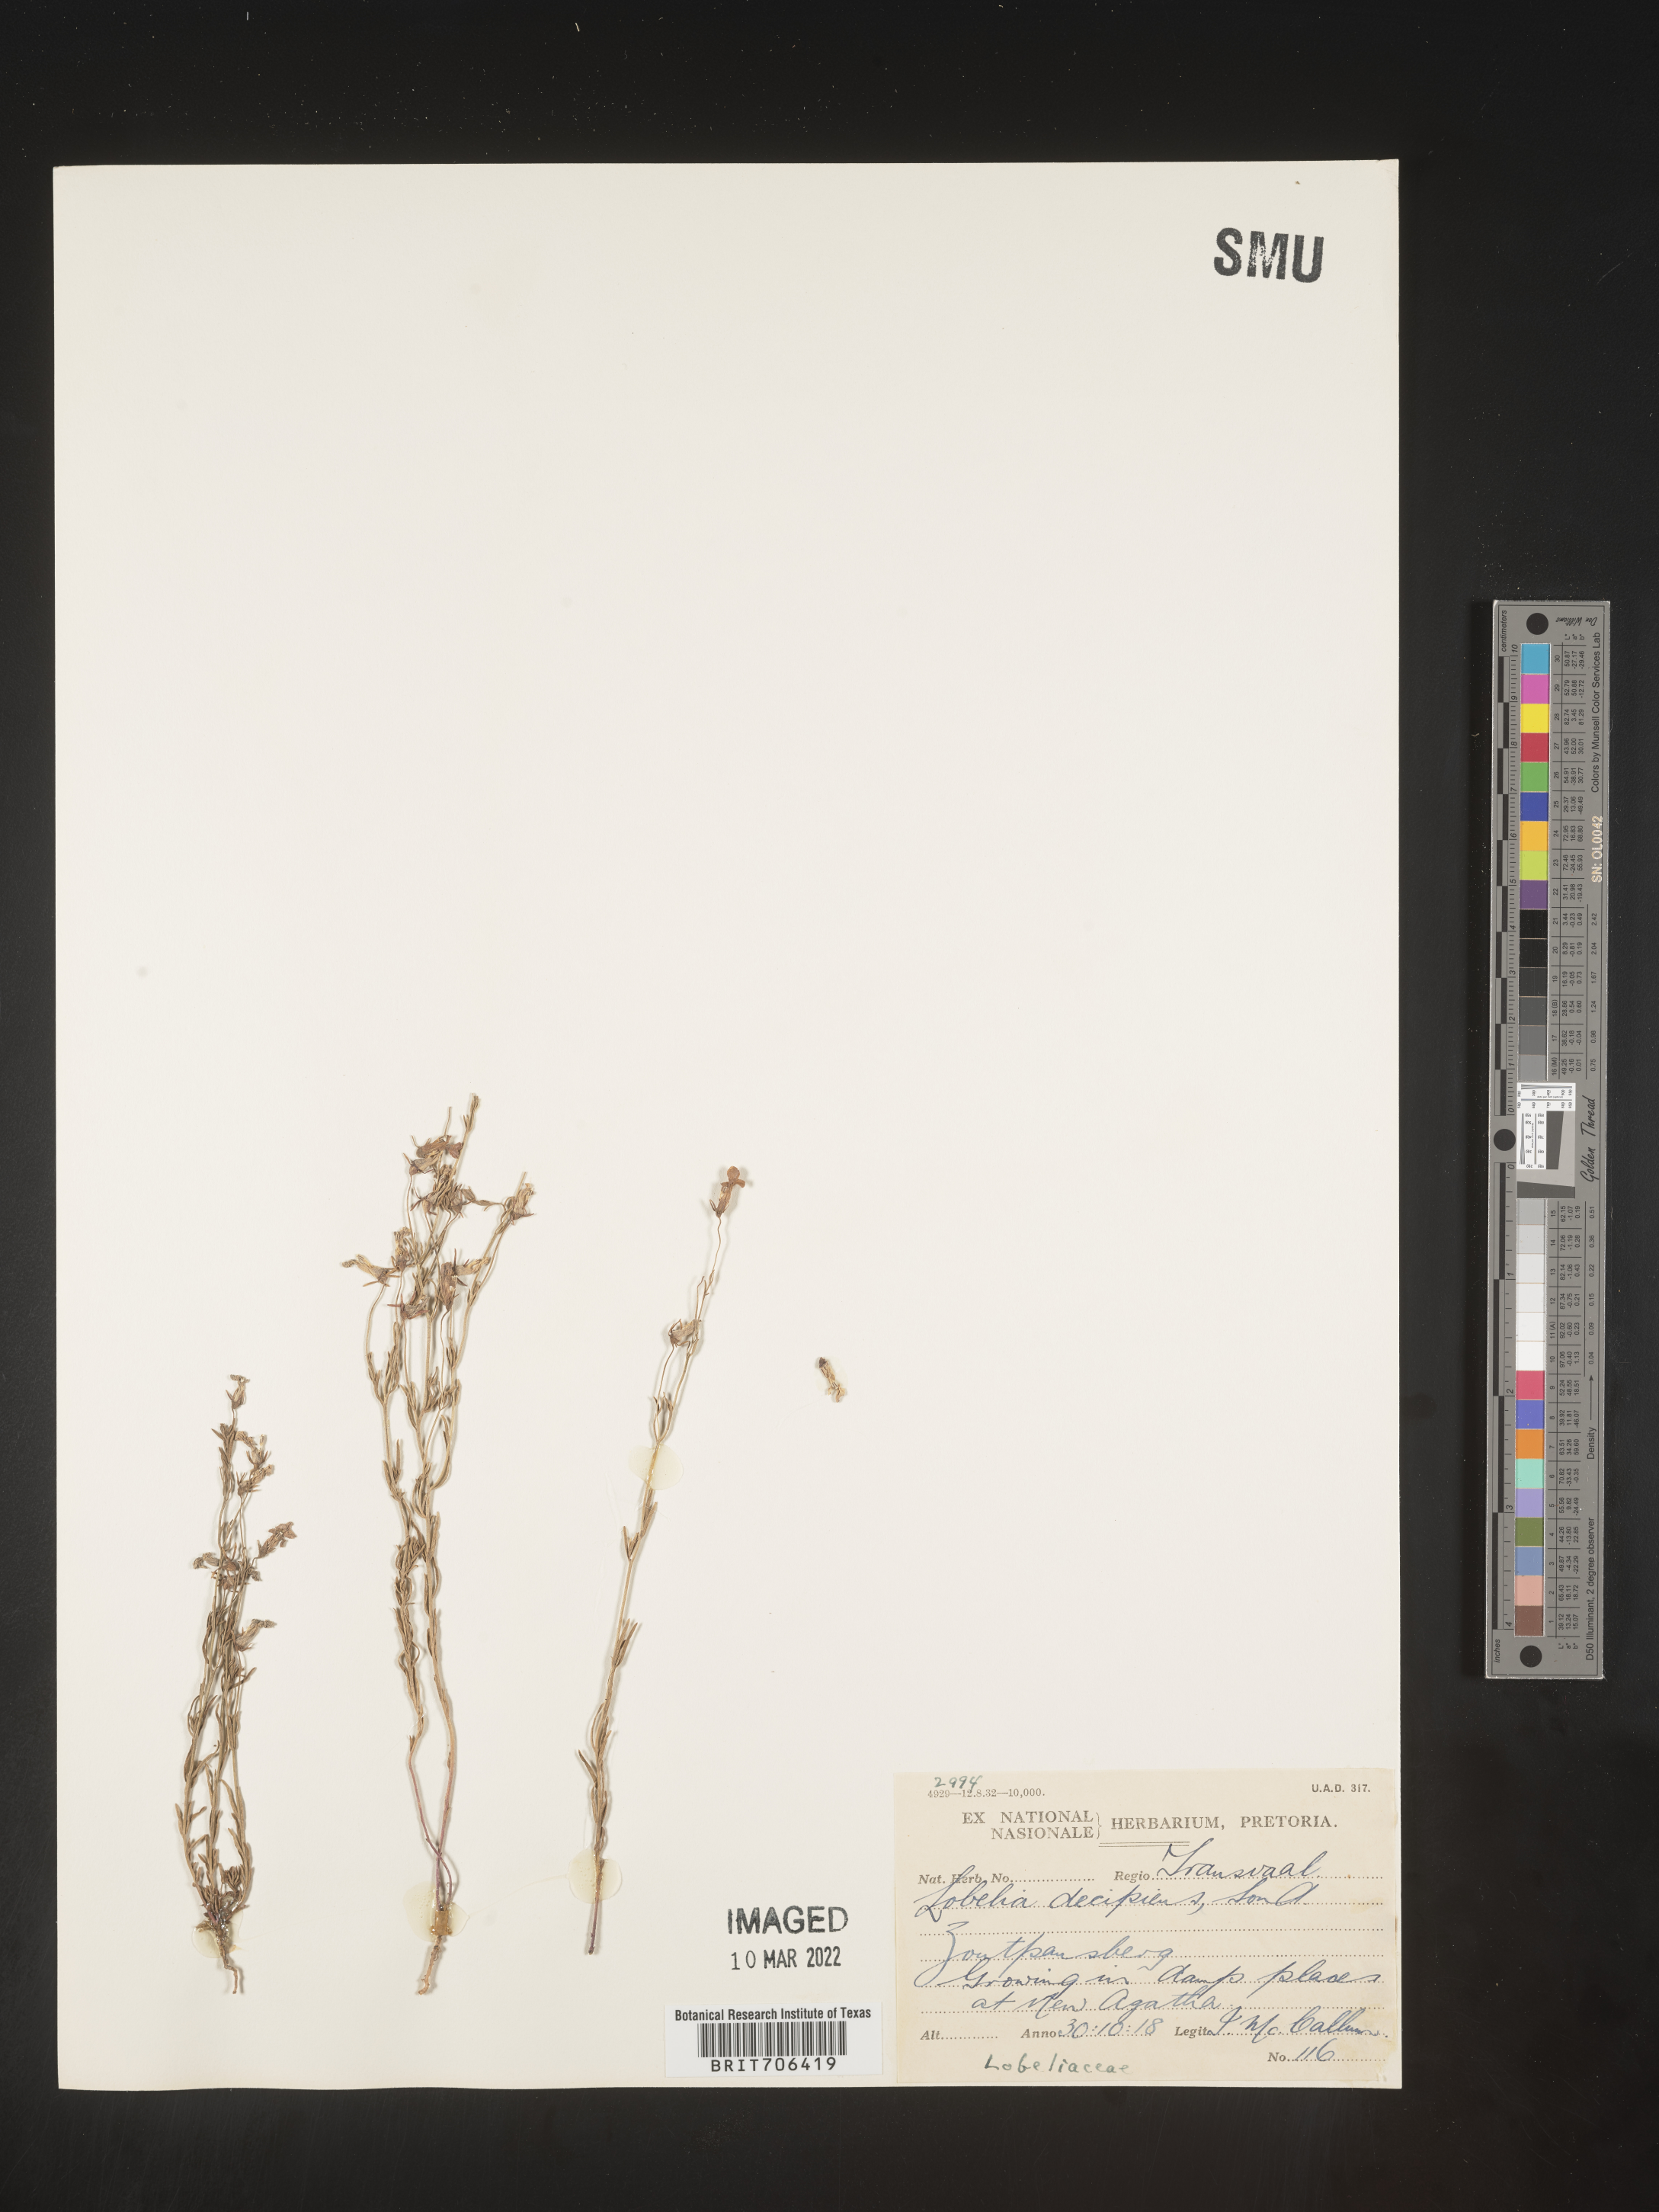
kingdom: Plantae
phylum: Tracheophyta
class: Magnoliopsida
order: Asterales
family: Campanulaceae
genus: Lobelia
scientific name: Lobelia
